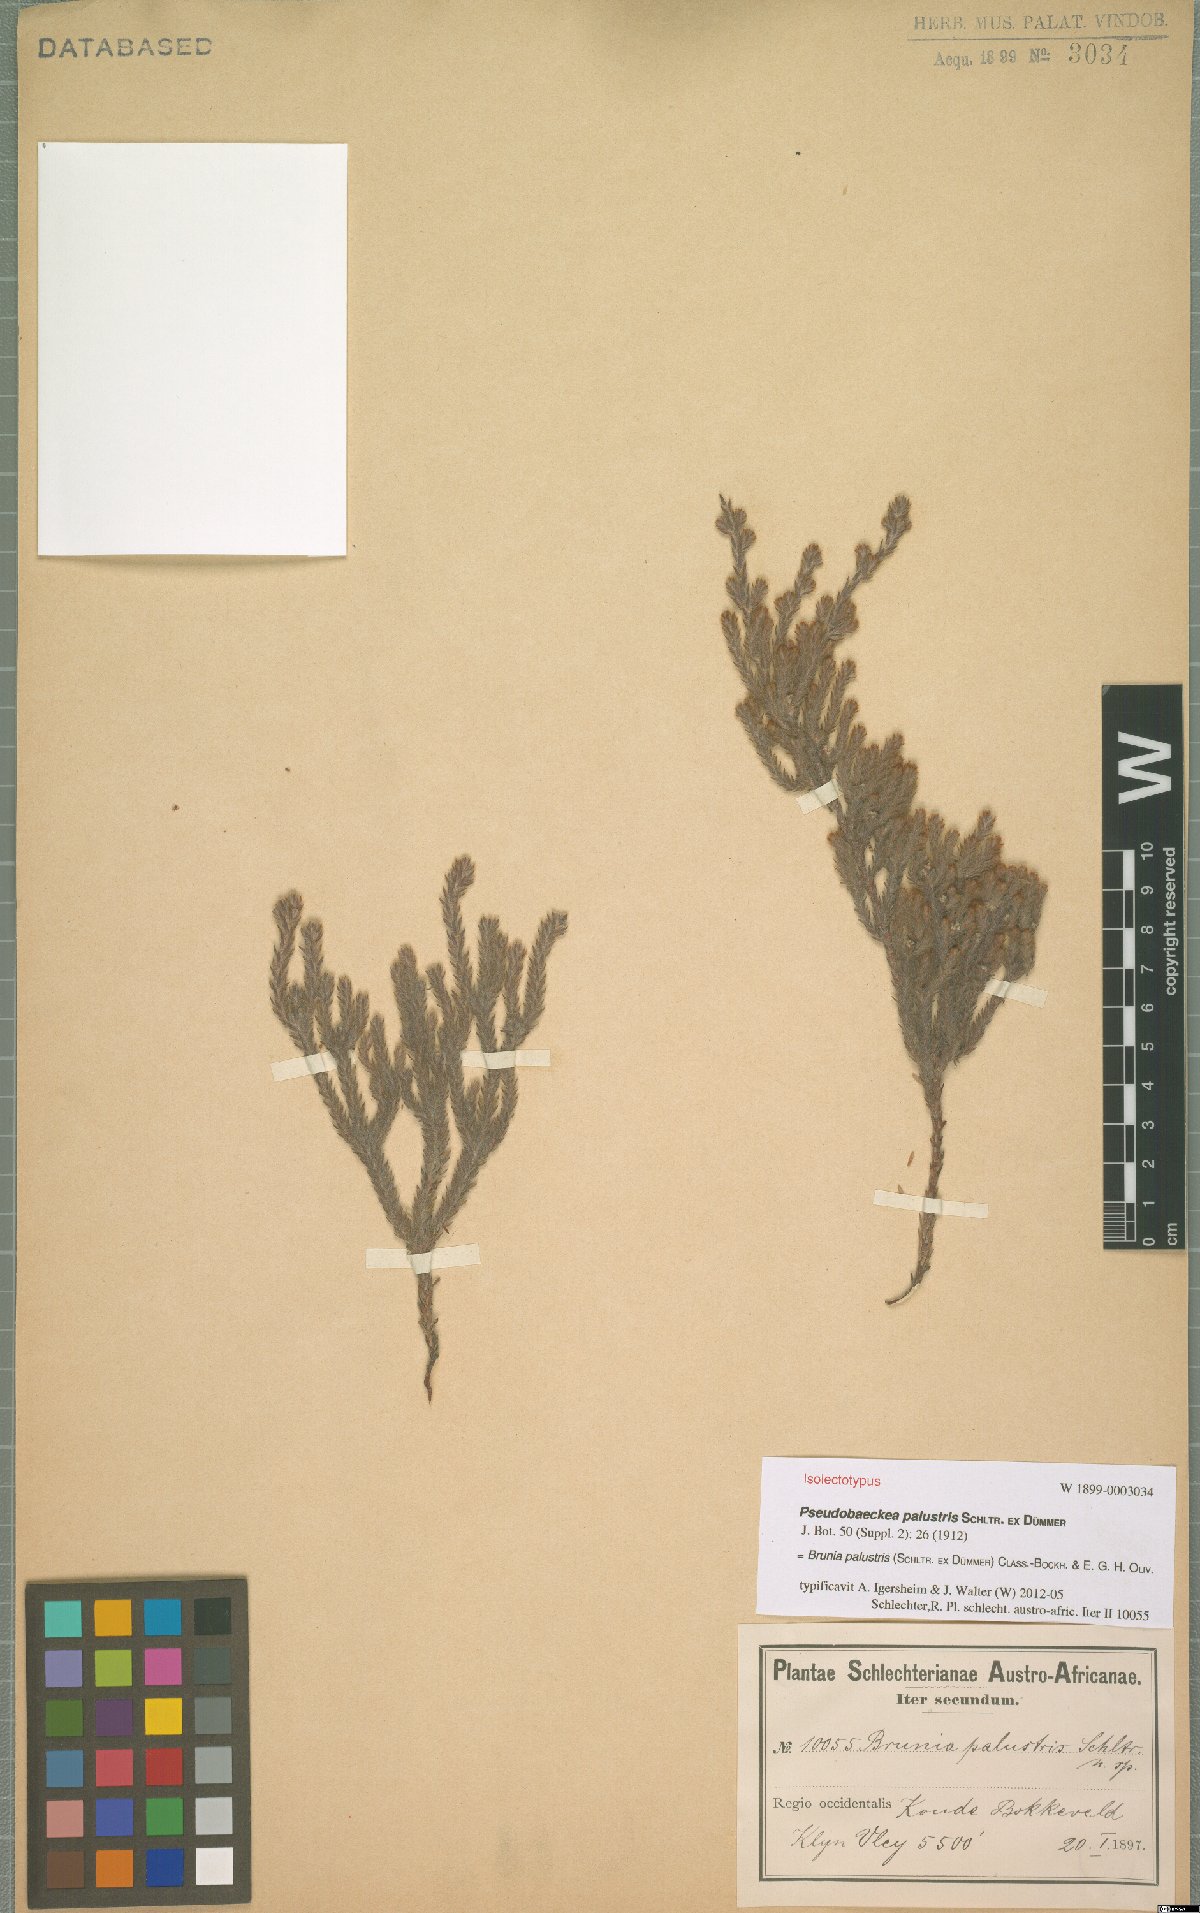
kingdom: Plantae
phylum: Tracheophyta
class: Magnoliopsida
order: Bruniales
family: Bruniaceae
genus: Brunia
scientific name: Brunia palustris
